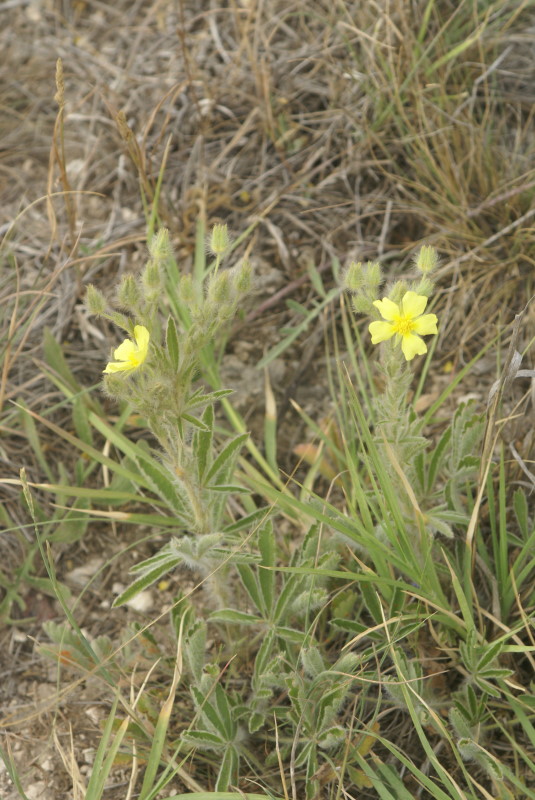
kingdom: Plantae
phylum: Tracheophyta
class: Magnoliopsida
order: Rosales
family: Rosaceae
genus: Potentilla
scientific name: Potentilla astracanica
